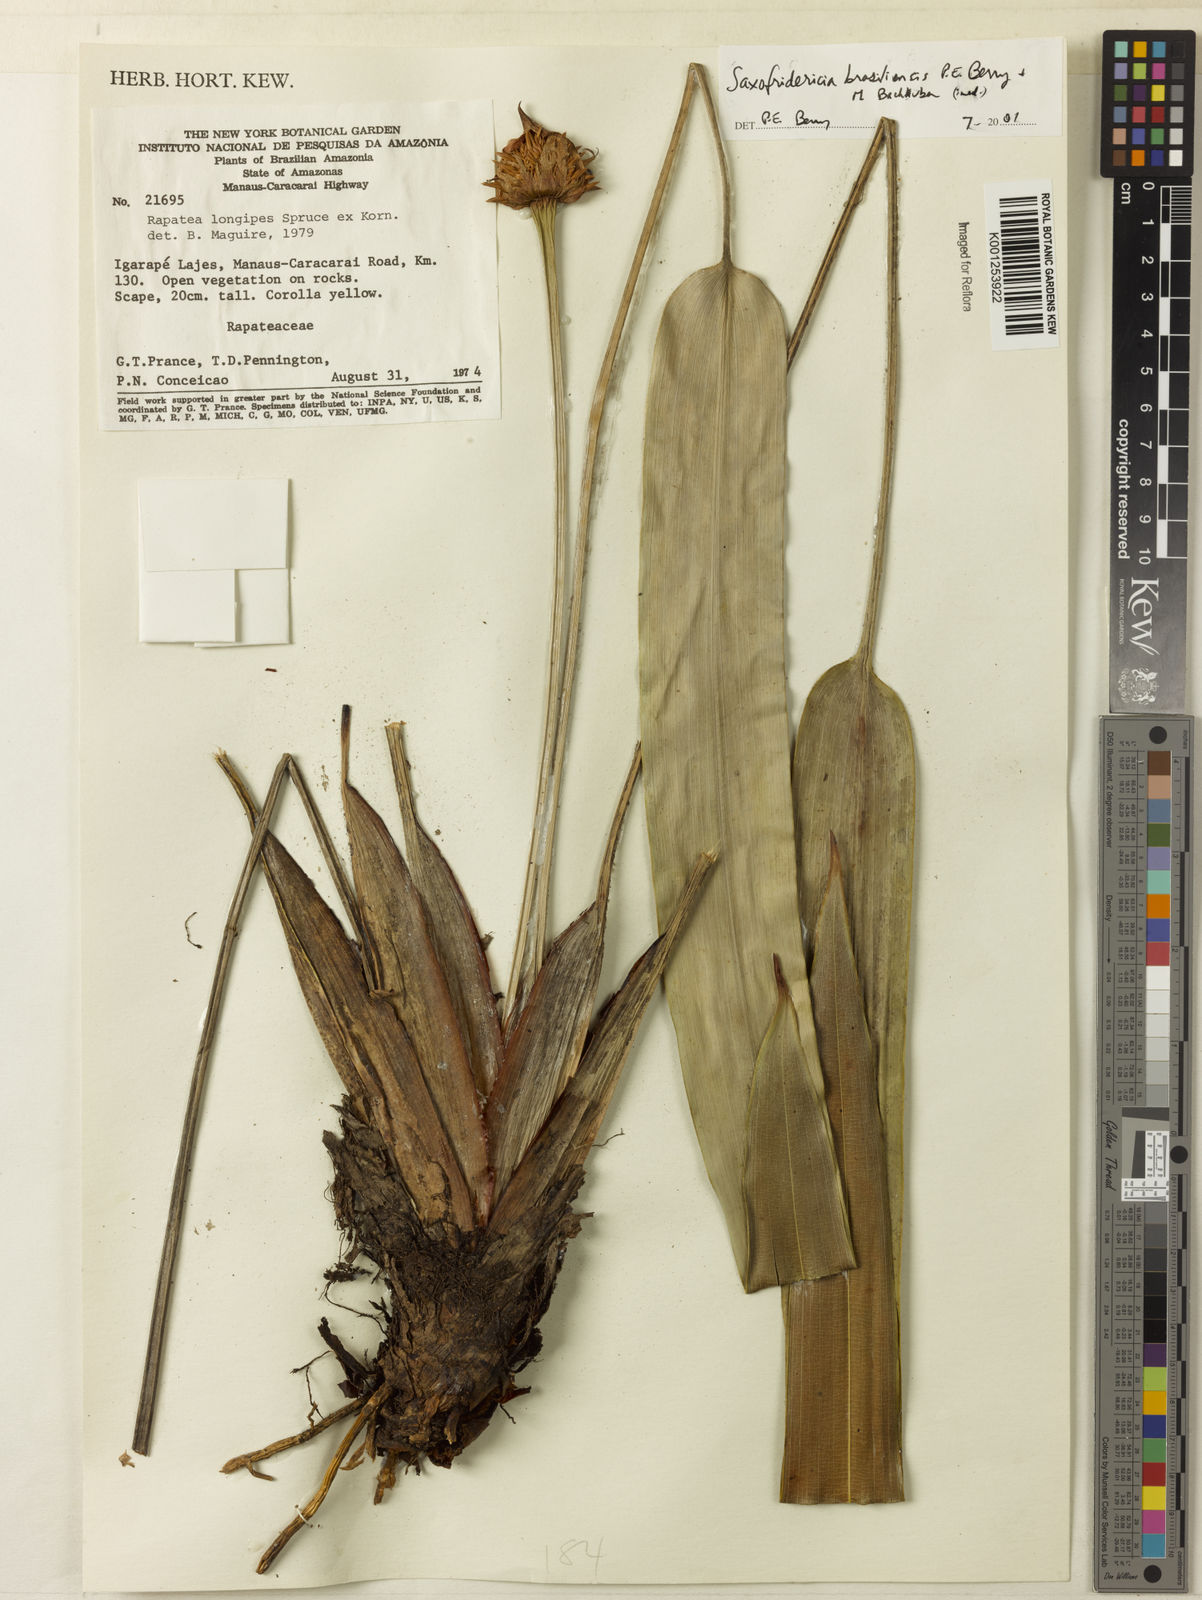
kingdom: Plantae
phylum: Tracheophyta
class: Liliopsida
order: Poales
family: Rapateaceae
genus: Saxofridericia
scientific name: Saxofridericia brasiliensis
